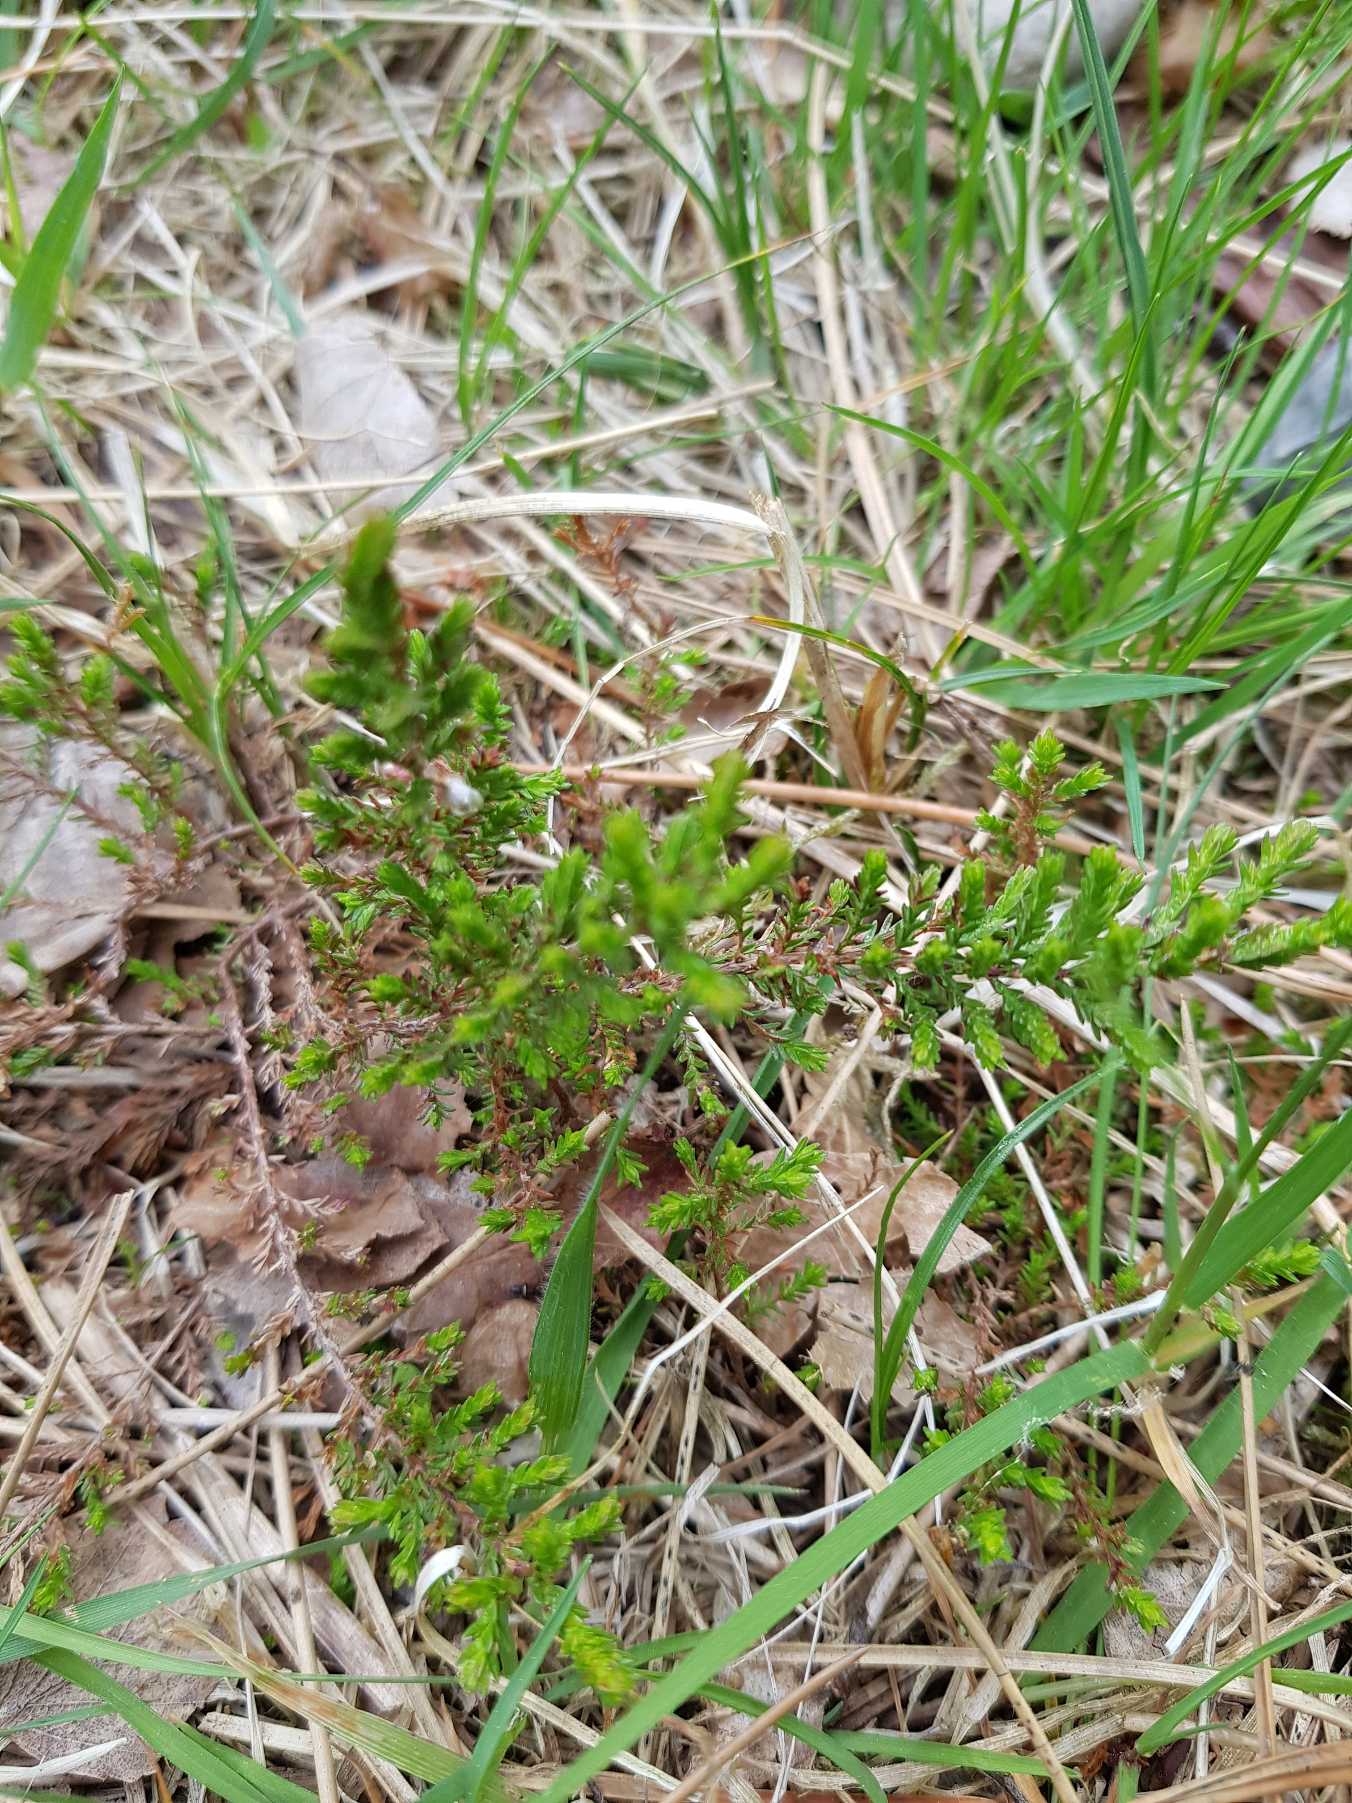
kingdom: Plantae
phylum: Tracheophyta
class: Magnoliopsida
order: Ericales
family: Ericaceae
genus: Calluna
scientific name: Calluna vulgaris
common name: Hedelyng
